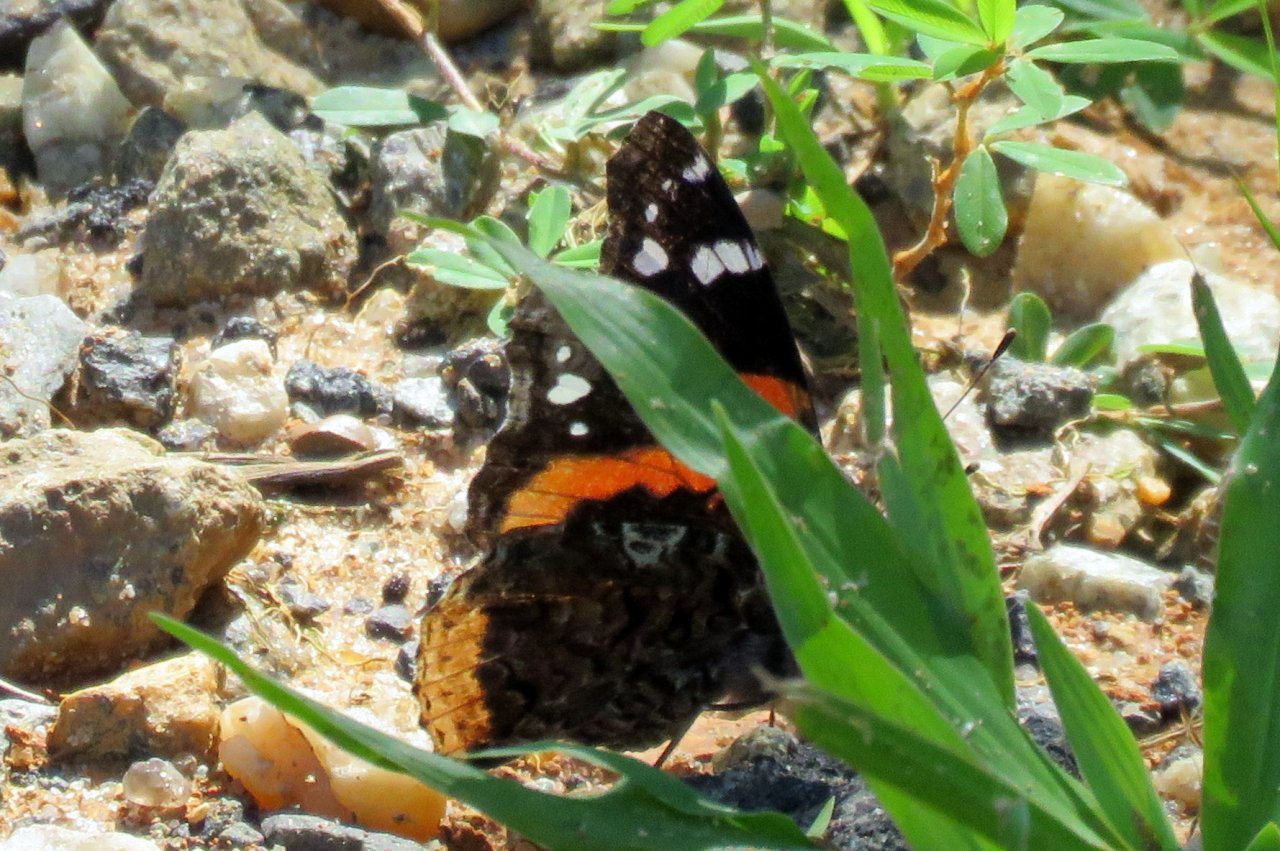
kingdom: Animalia
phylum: Arthropoda
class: Insecta
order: Lepidoptera
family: Nymphalidae
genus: Vanessa
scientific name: Vanessa atalanta
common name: Red Admiral
